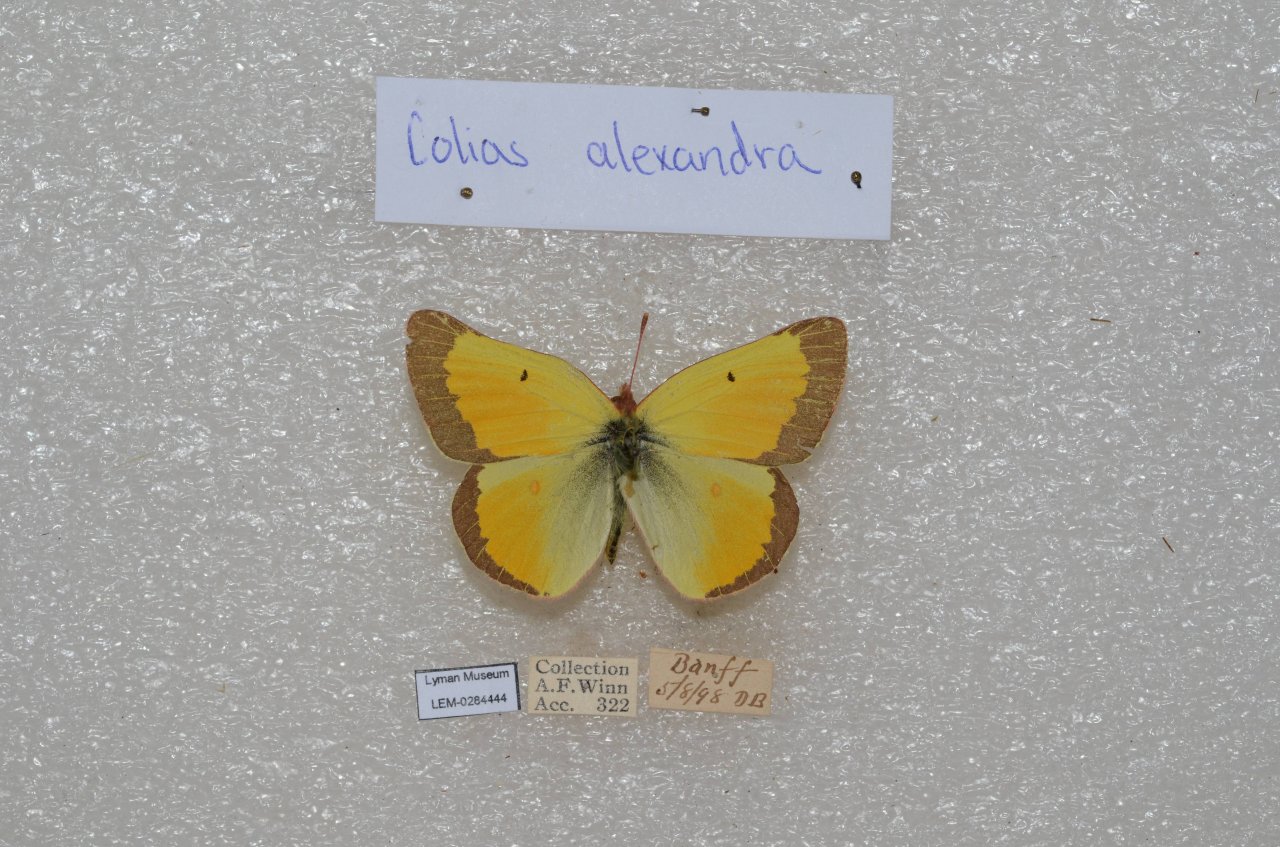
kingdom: Animalia
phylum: Arthropoda
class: Insecta
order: Lepidoptera
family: Pieridae
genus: Colias
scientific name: Colias alexandra
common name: Queen Alexandra's Sulphur
